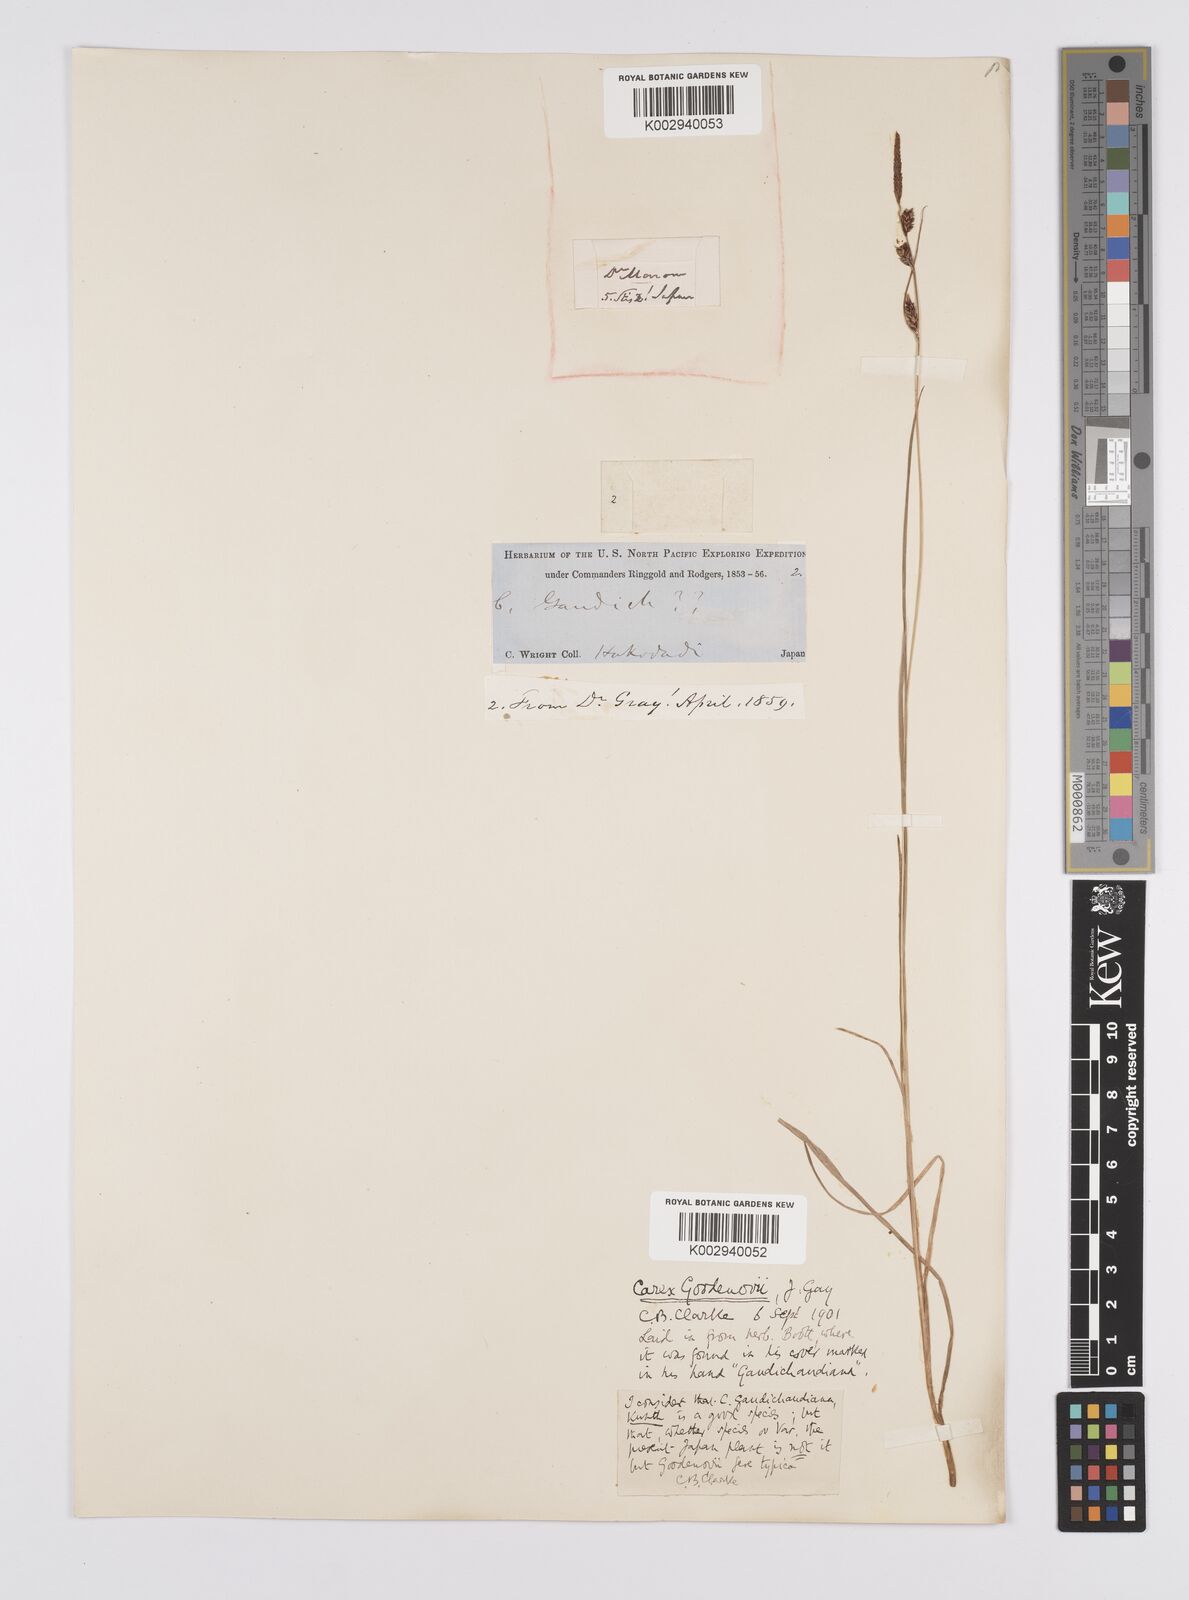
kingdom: Plantae
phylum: Tracheophyta
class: Liliopsida
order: Poales
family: Cyperaceae
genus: Carex
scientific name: Carex thunbergii
